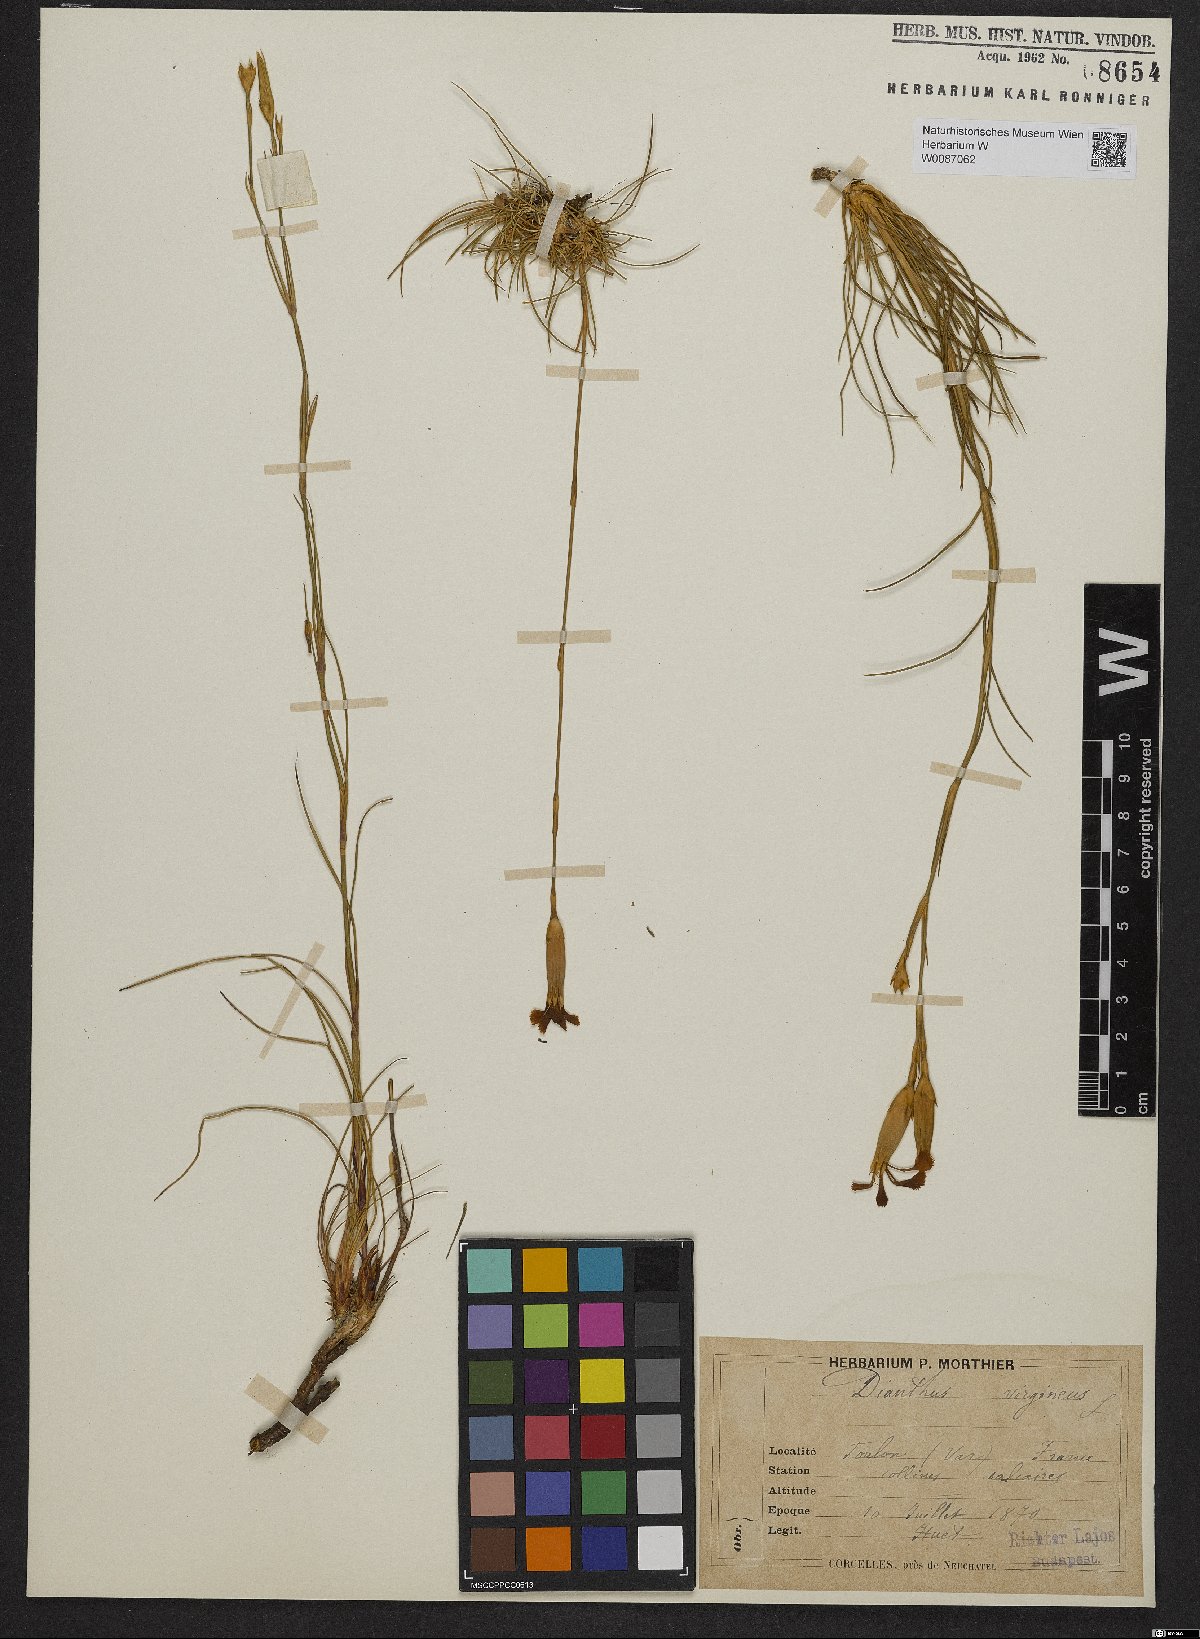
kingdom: Plantae
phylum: Tracheophyta
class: Magnoliopsida
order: Caryophyllales
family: Caryophyllaceae
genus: Dianthus
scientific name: Dianthus virgineus
